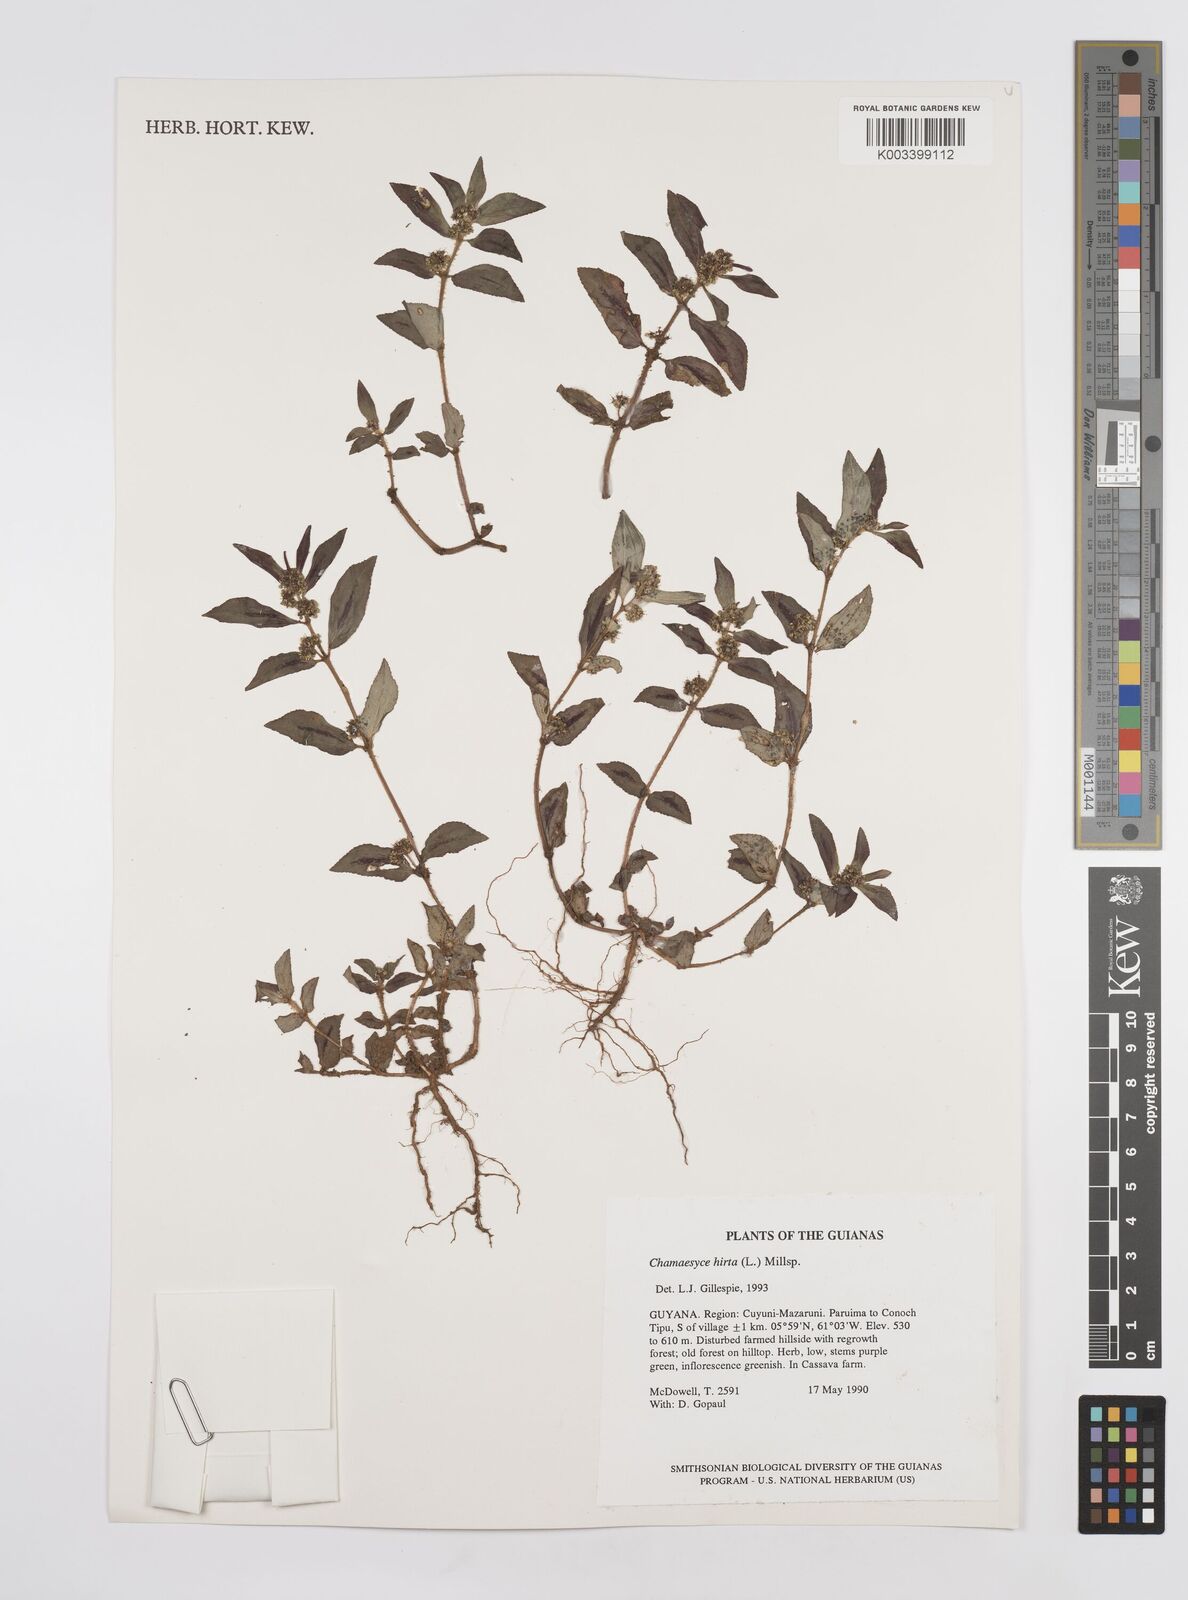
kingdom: Plantae
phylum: Tracheophyta
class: Magnoliopsida
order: Malpighiales
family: Euphorbiaceae
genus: Euphorbia
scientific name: Euphorbia hirta
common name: Pillpod sandmat
